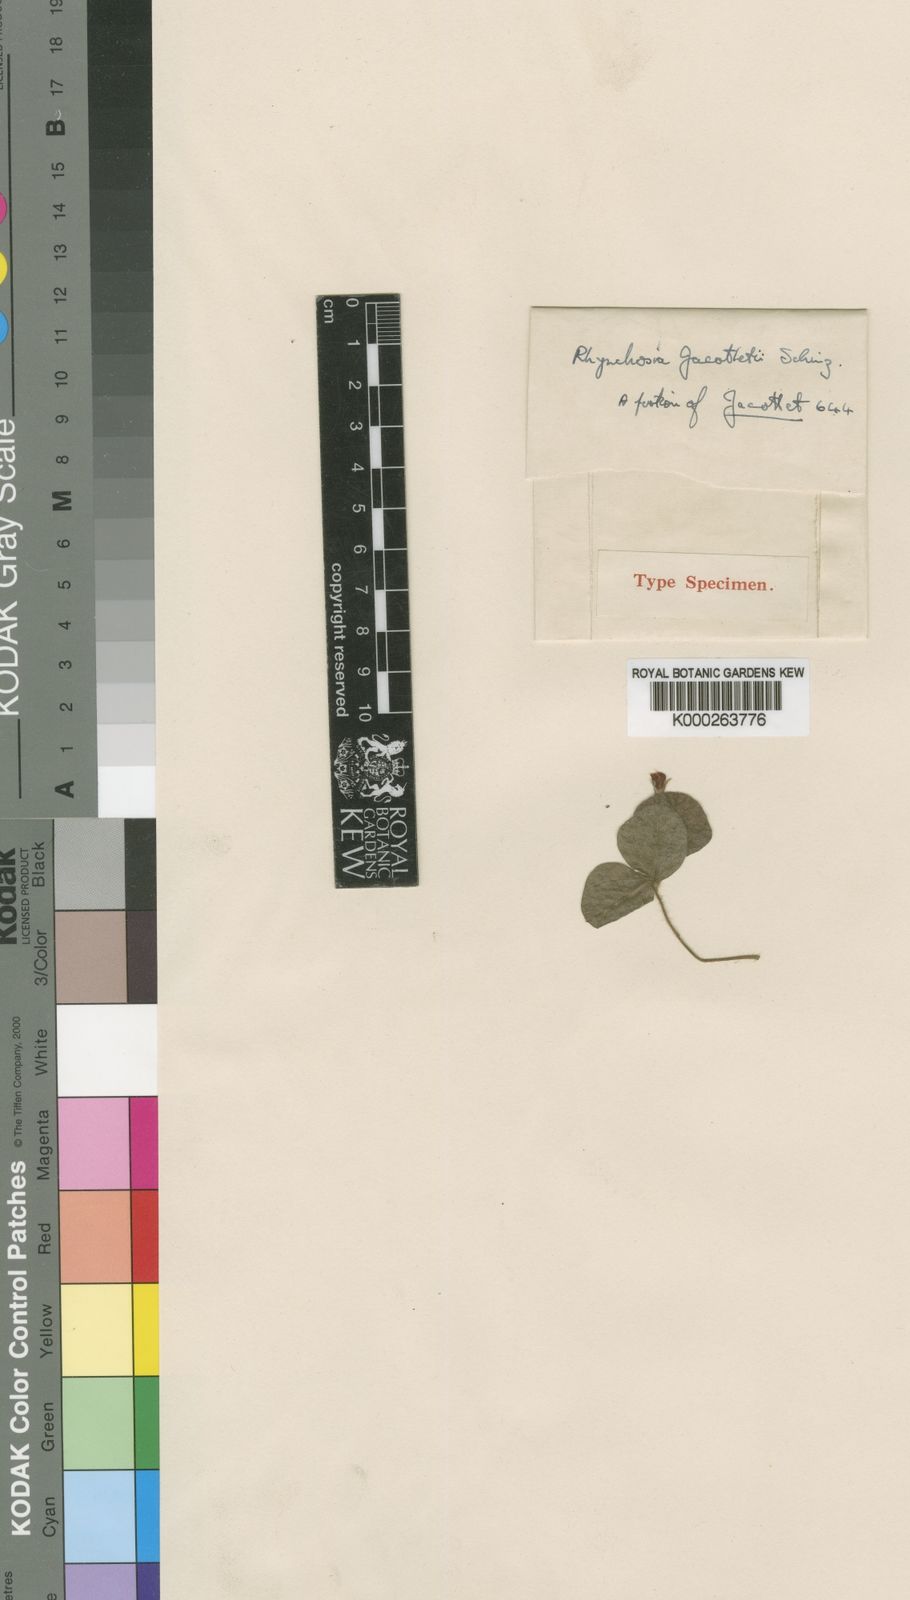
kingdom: Plantae
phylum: Tracheophyta
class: Magnoliopsida
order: Fabales
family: Fabaceae
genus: Rhynchosia
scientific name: Rhynchosia reptabunda
